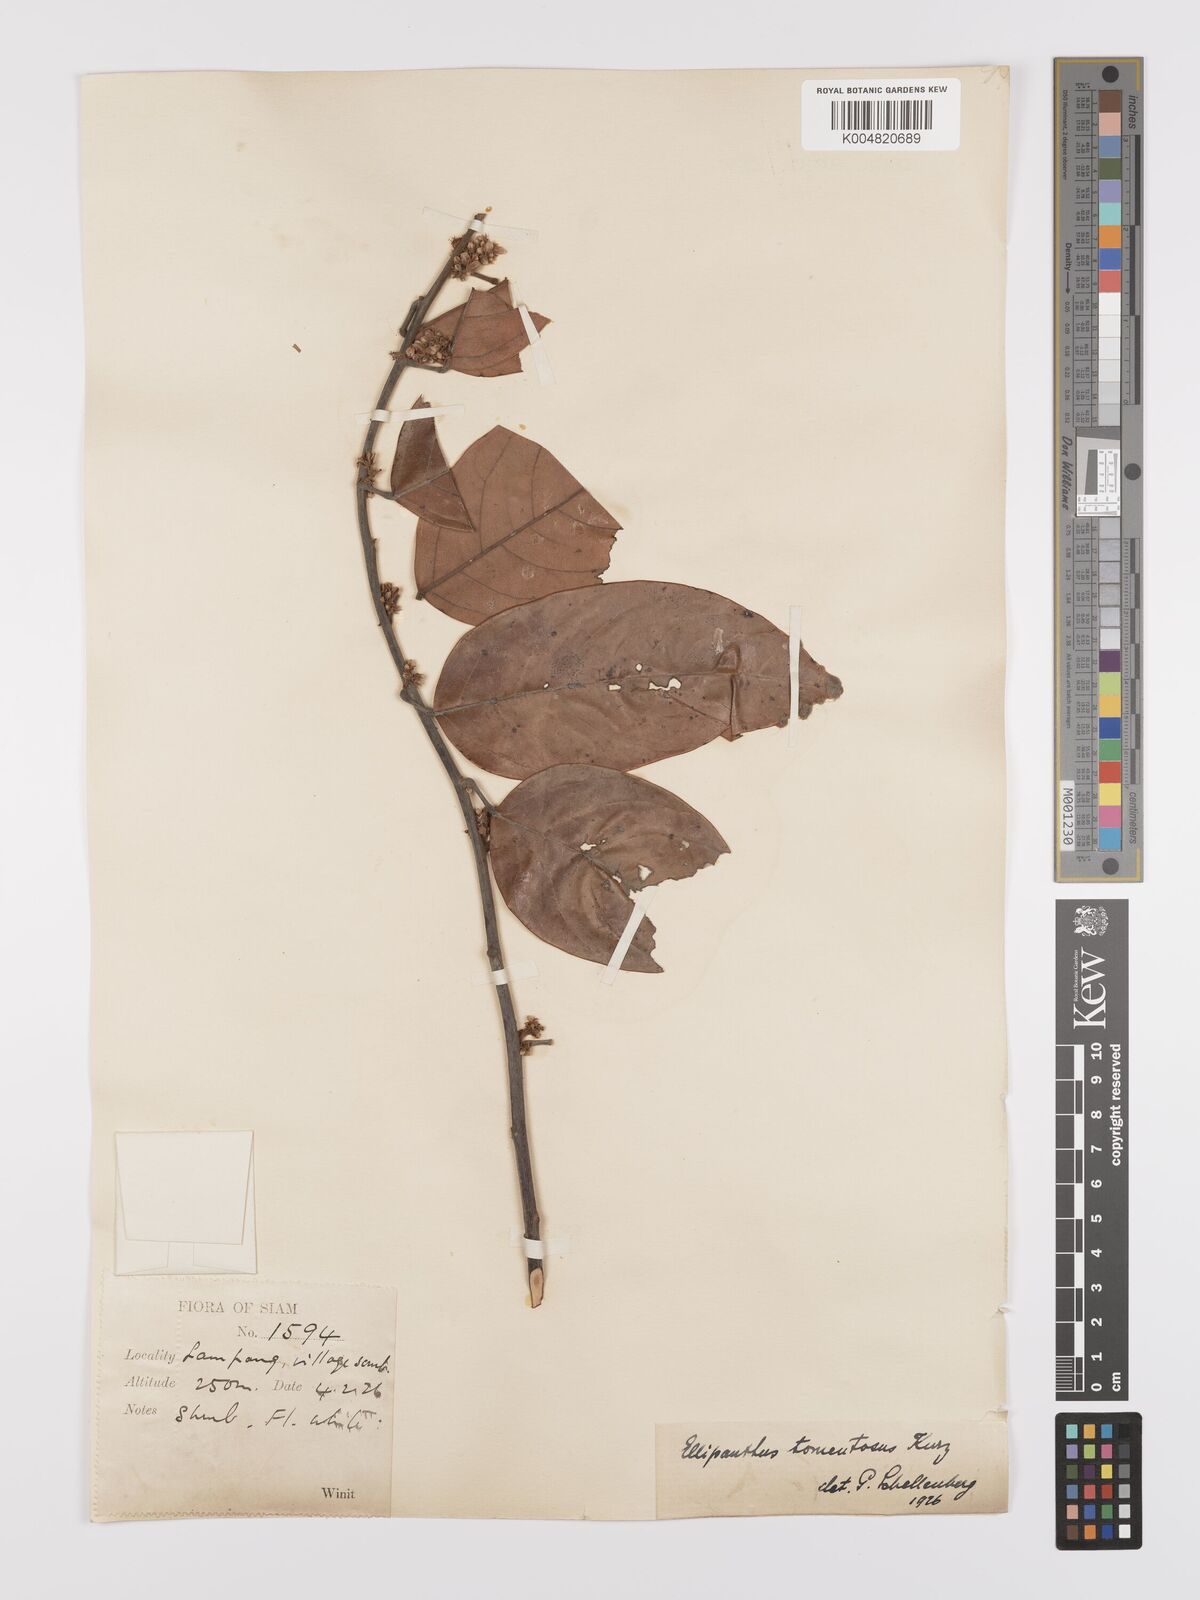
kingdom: Plantae
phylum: Tracheophyta
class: Magnoliopsida
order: Oxalidales
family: Connaraceae
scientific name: Connaraceae
